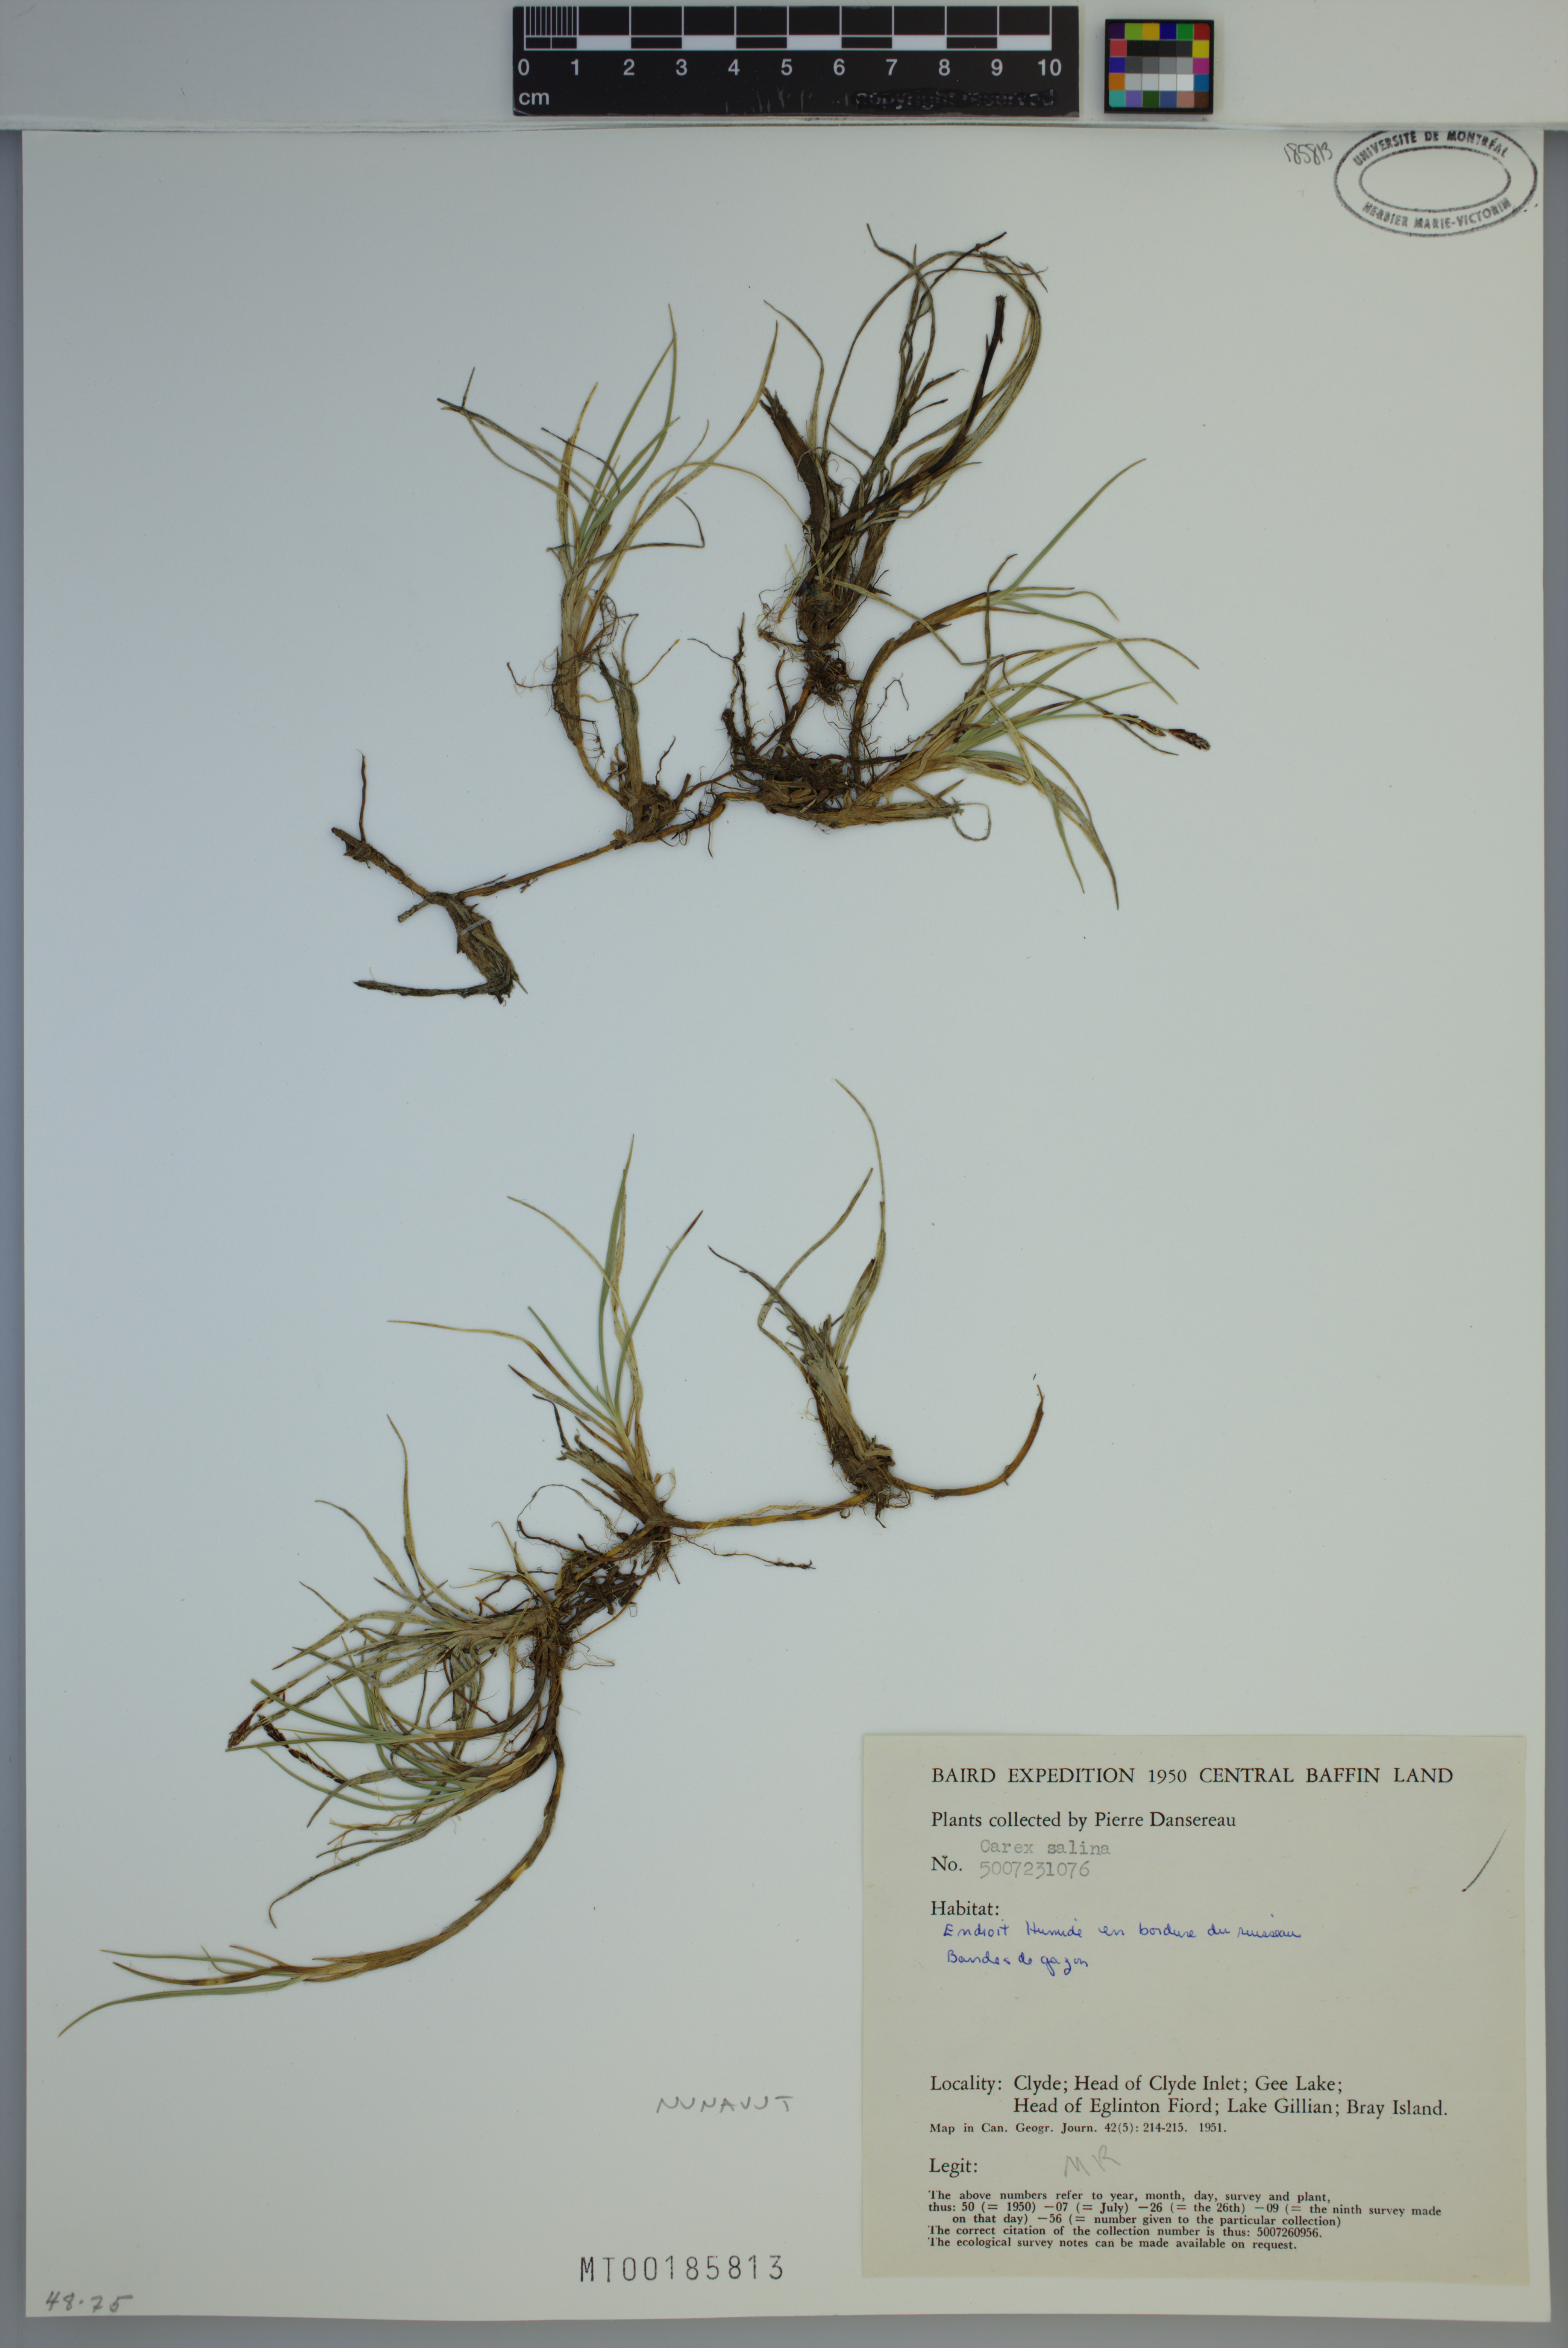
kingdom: Plantae
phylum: Tracheophyta
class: Liliopsida
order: Poales
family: Cyperaceae
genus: Carex
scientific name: Carex salina
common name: Saltmarsh sedge
